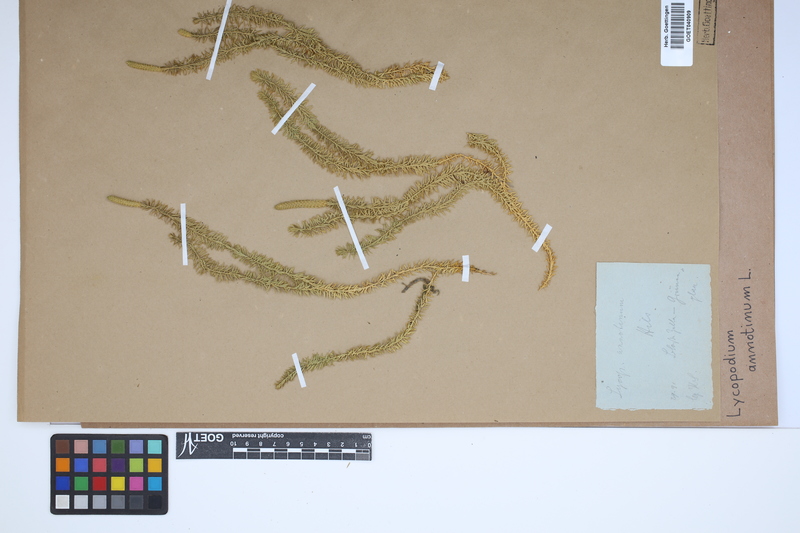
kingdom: Plantae
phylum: Tracheophyta
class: Lycopodiopsida
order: Lycopodiales
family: Lycopodiaceae
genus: Spinulum
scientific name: Spinulum annotinum
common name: Interrupted club-moss
